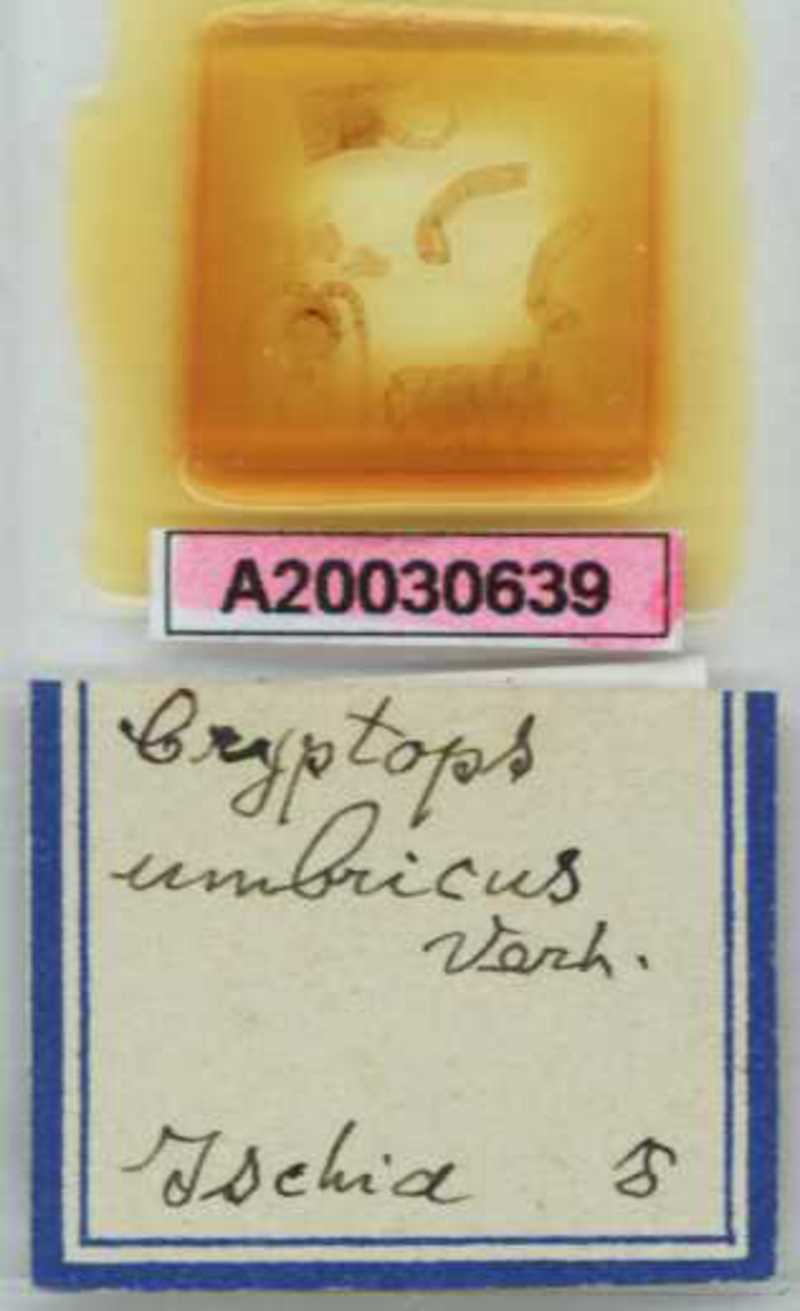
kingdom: Animalia
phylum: Arthropoda
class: Chilopoda
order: Scolopendromorpha
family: Cryptopidae
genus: Cryptops
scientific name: Cryptops umbricus
